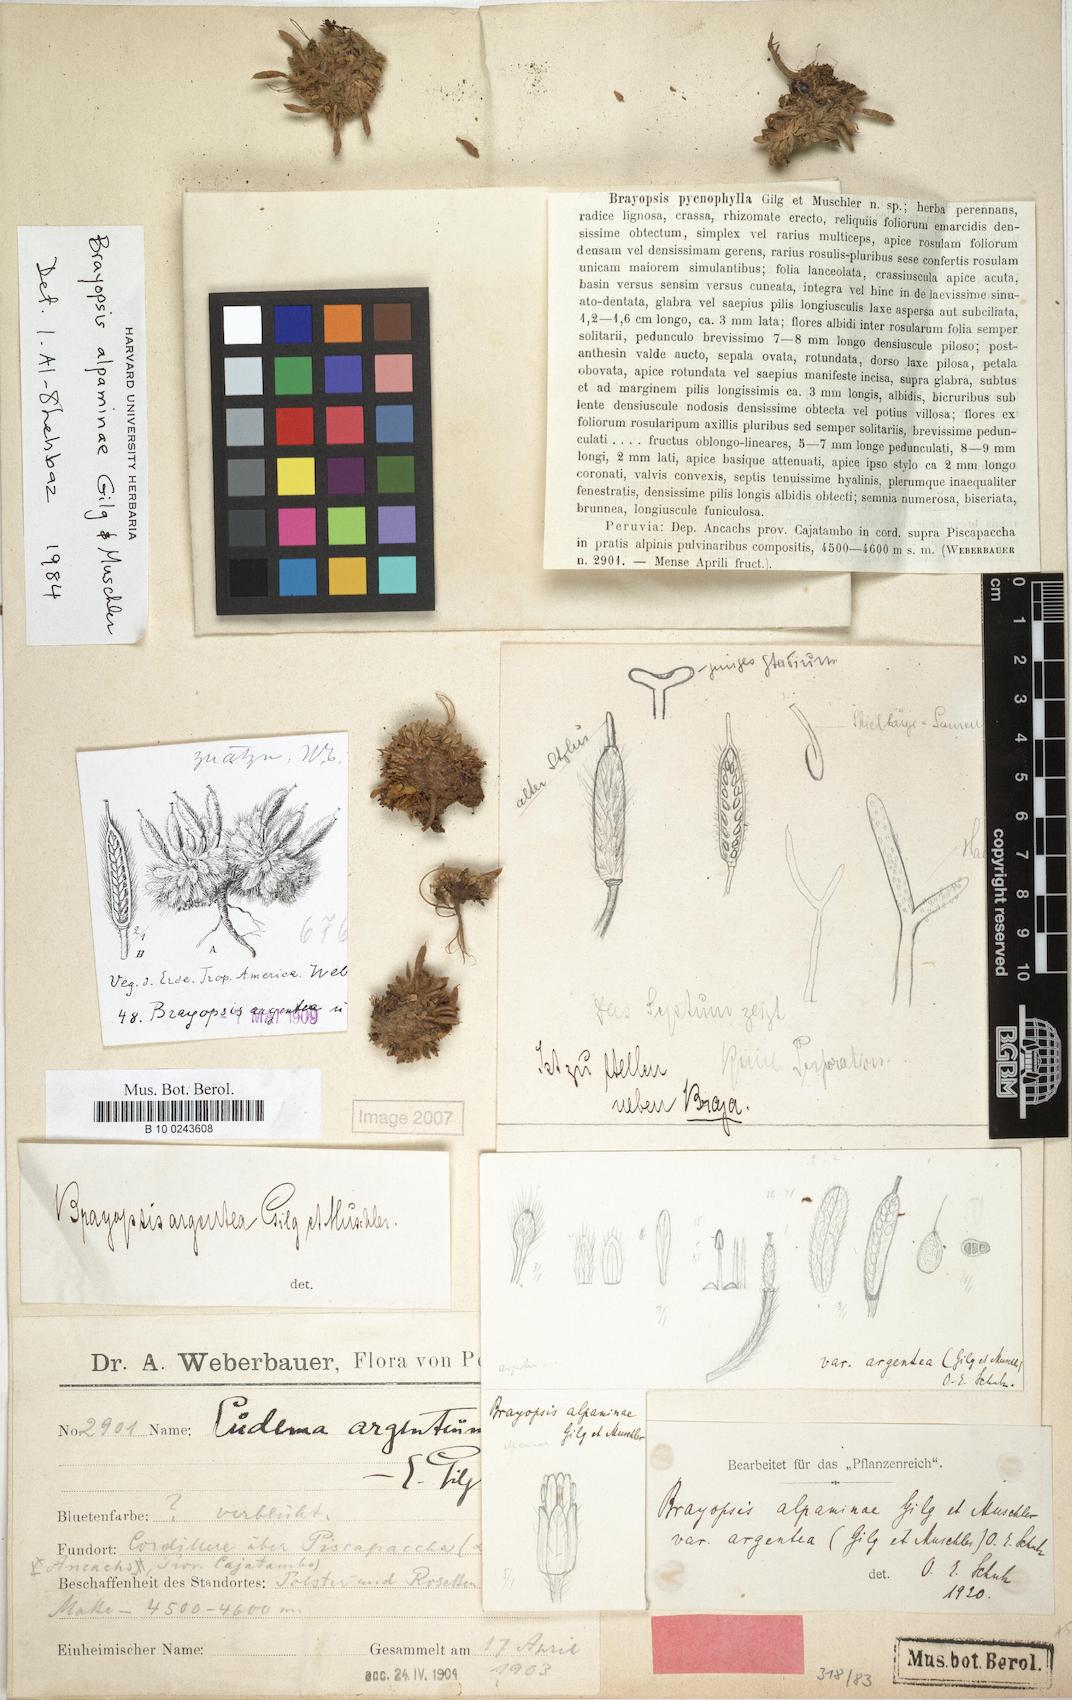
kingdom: Plantae
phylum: Tracheophyta
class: Magnoliopsida
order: Brassicales
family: Brassicaceae
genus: Brayopsis
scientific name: Brayopsis alpaminae
